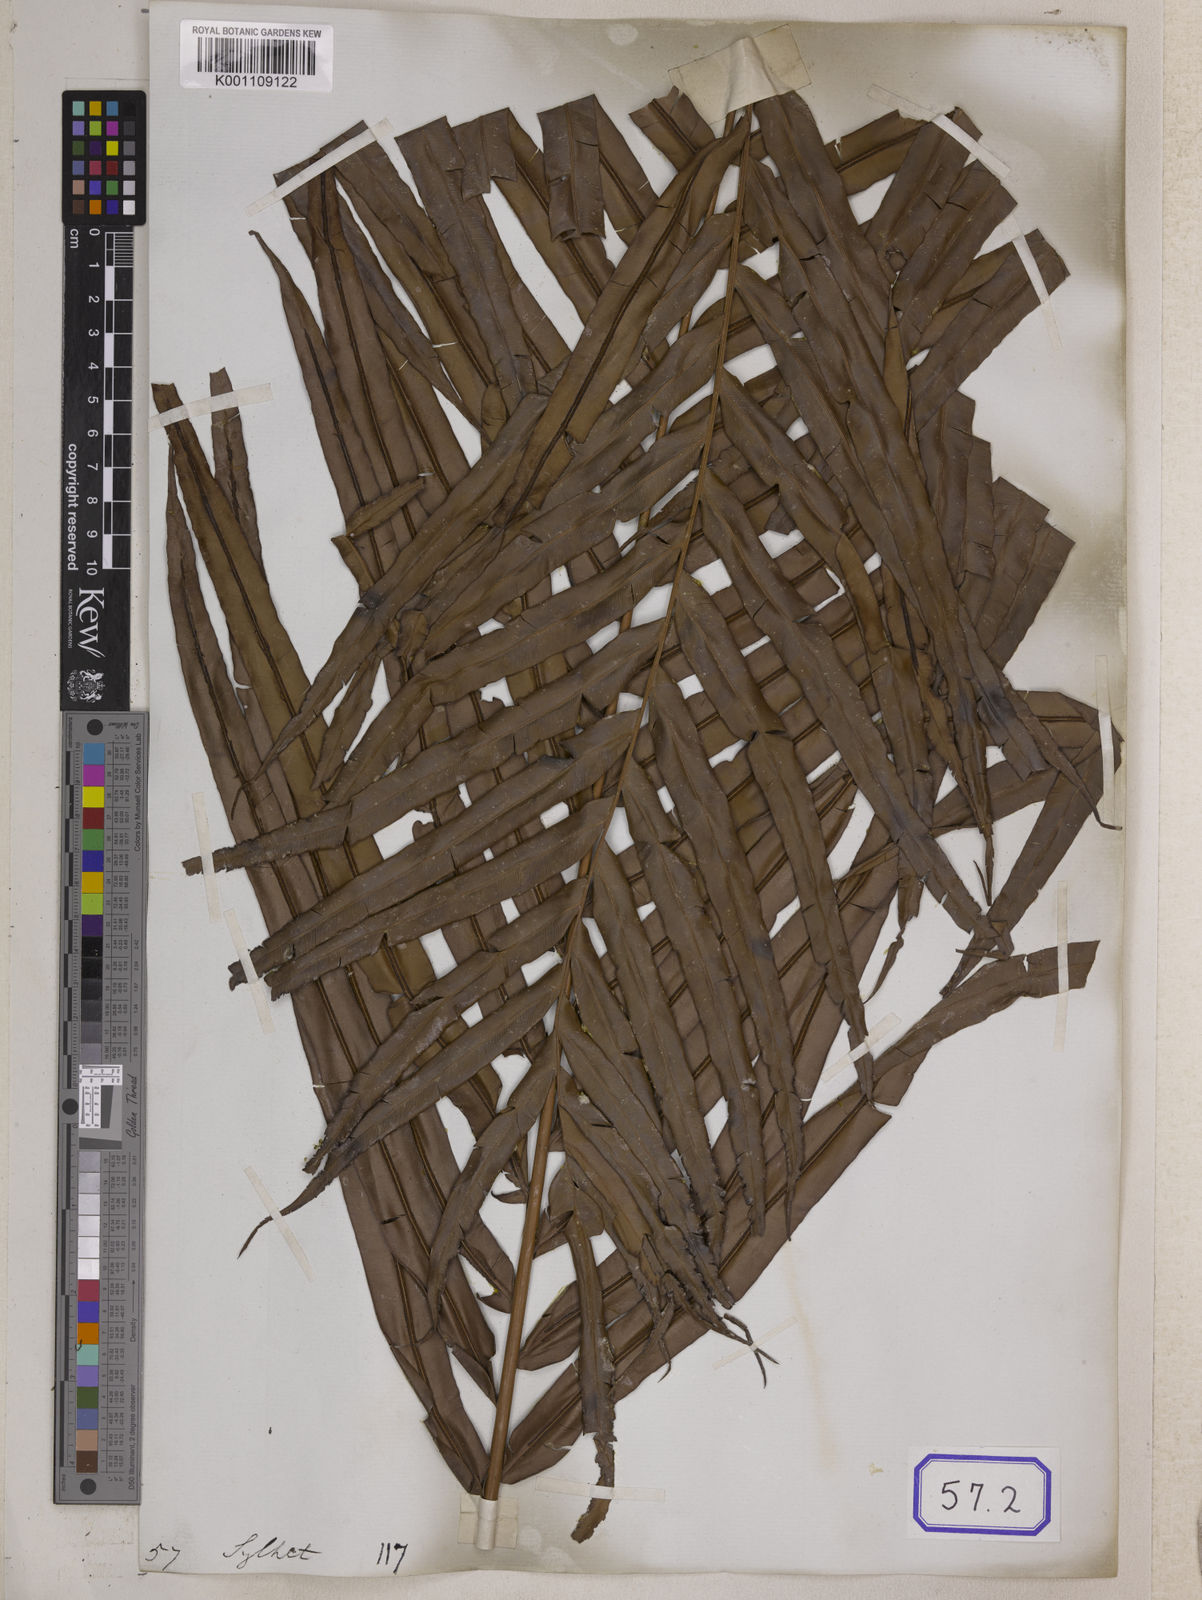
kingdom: Plantae
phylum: Tracheophyta
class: Polypodiopsida
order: Polypodiales
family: Blechnaceae
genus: Blechnopsis
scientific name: Blechnopsis orientalis
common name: Oriental blechnum
